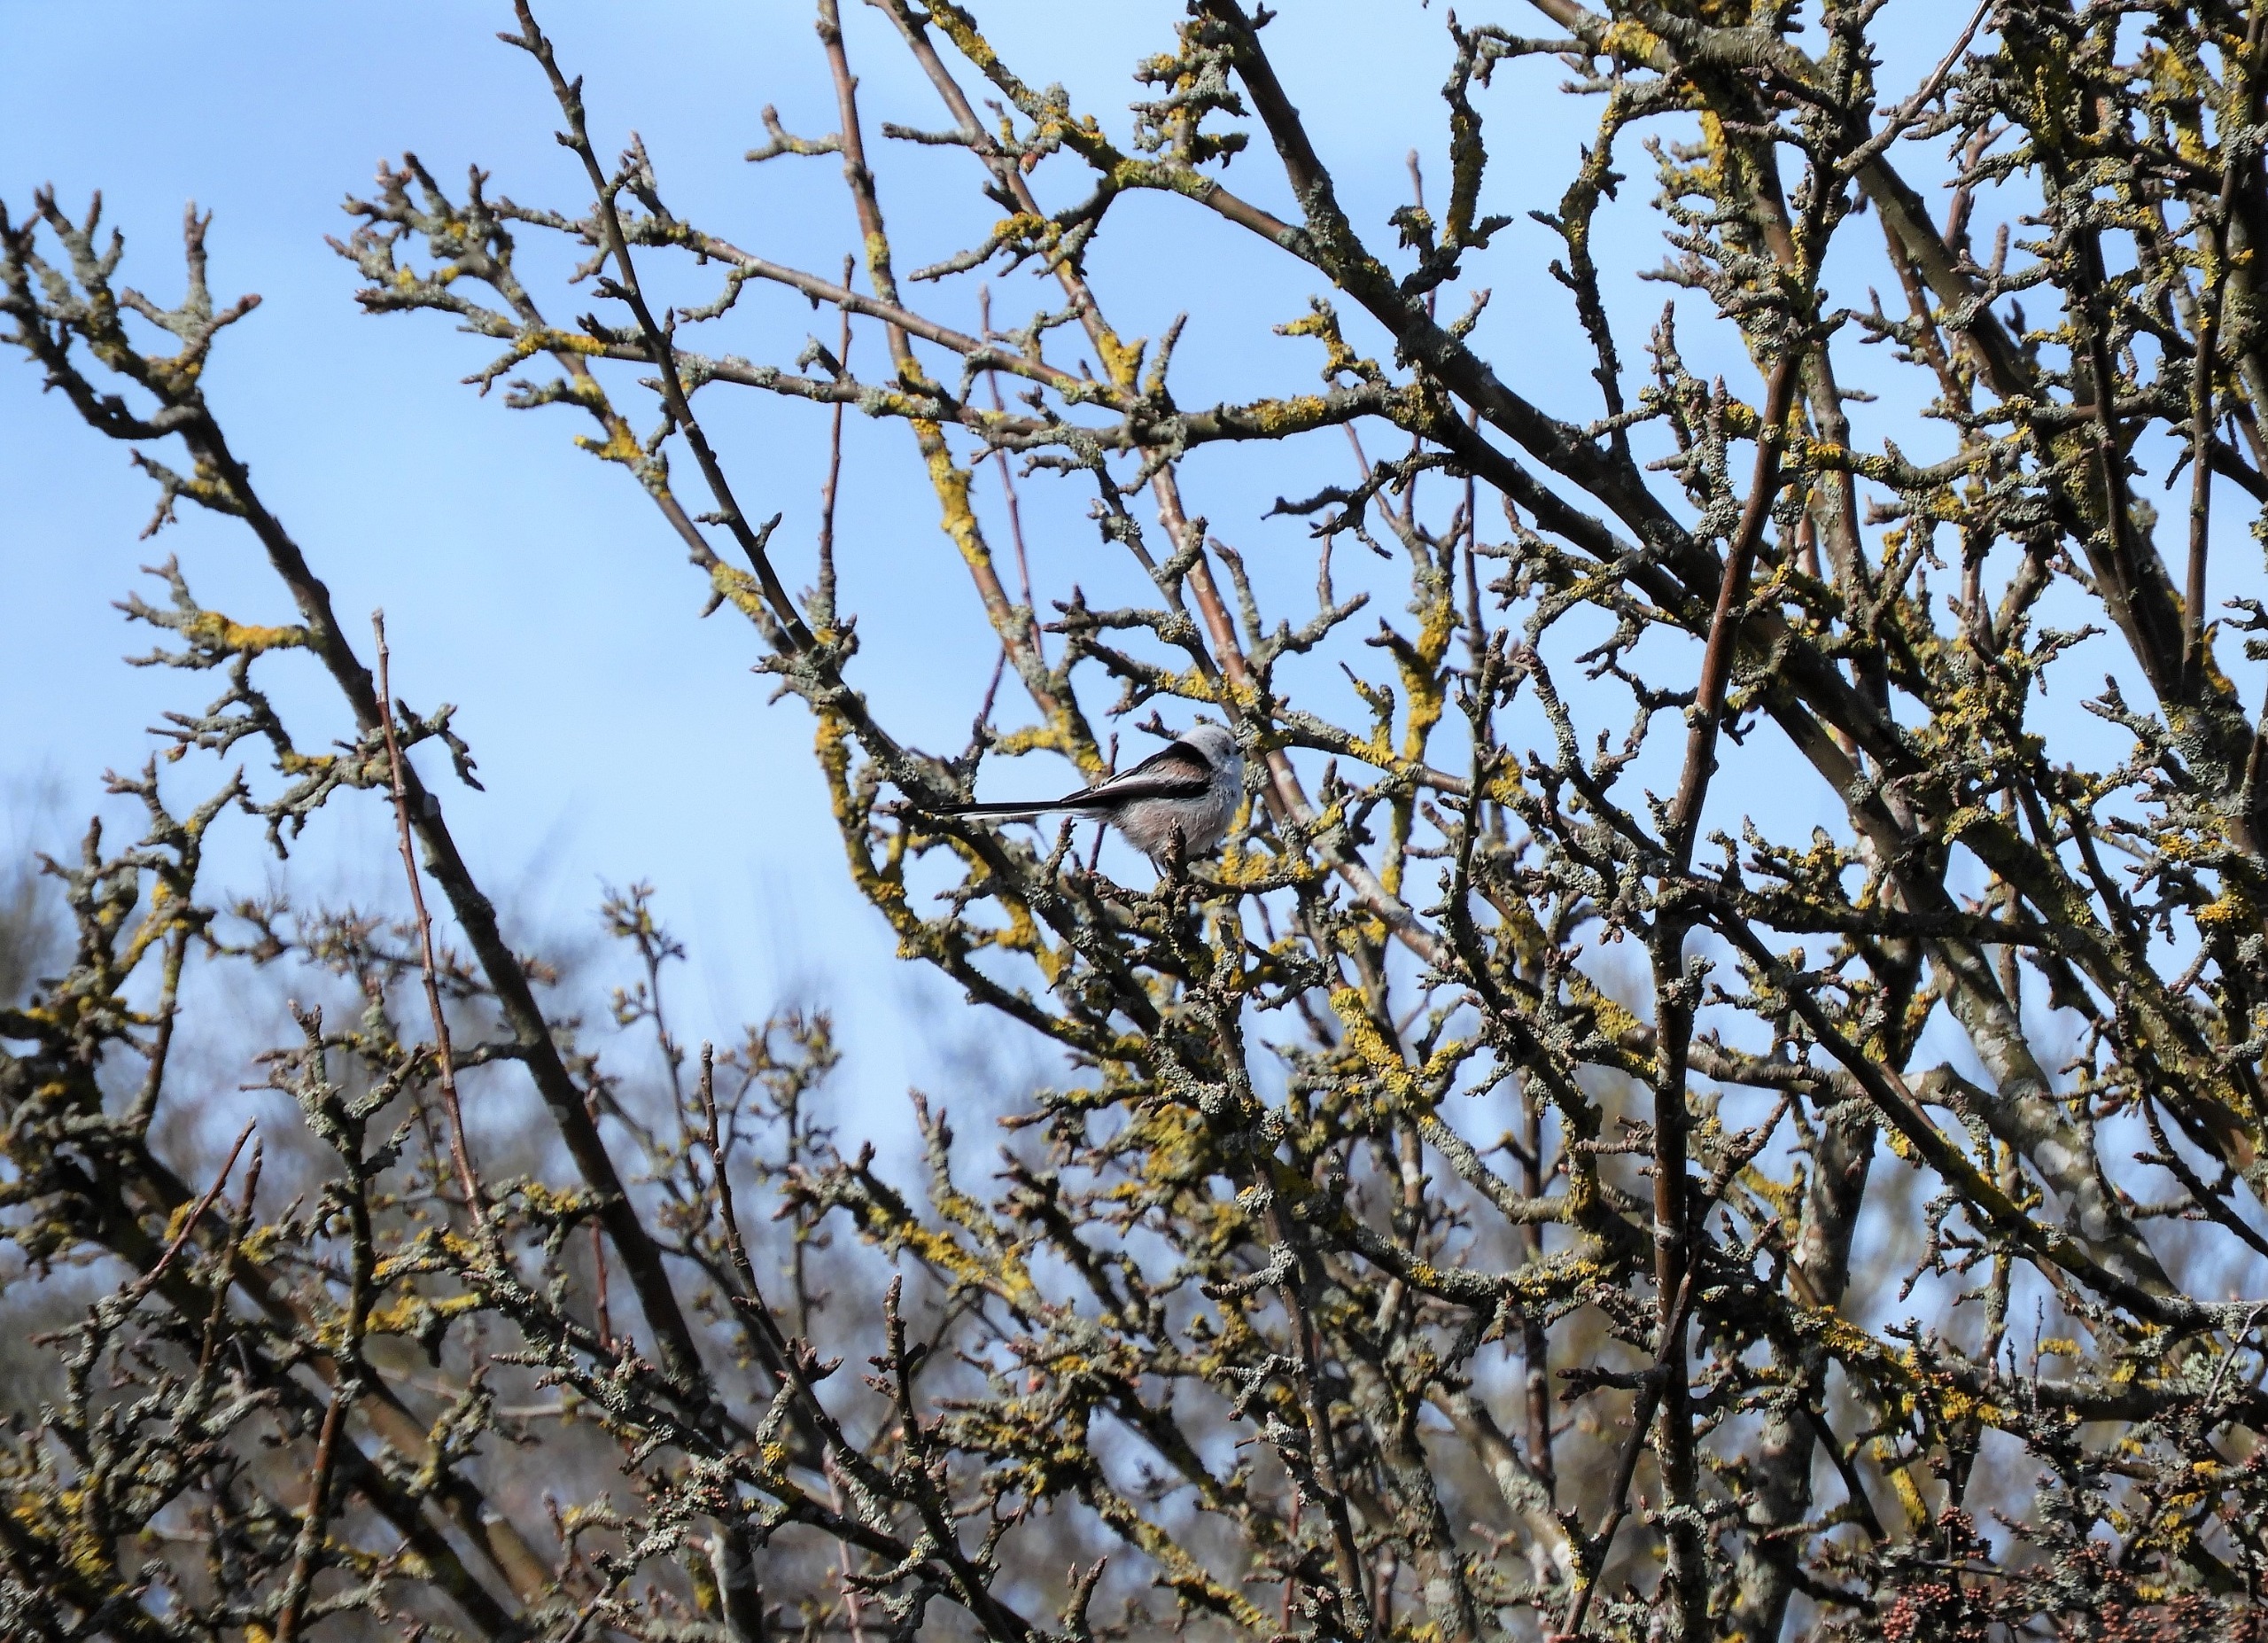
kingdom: Animalia
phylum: Chordata
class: Aves
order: Passeriformes
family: Aegithalidae
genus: Aegithalos
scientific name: Aegithalos caudatus
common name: Halemejse
